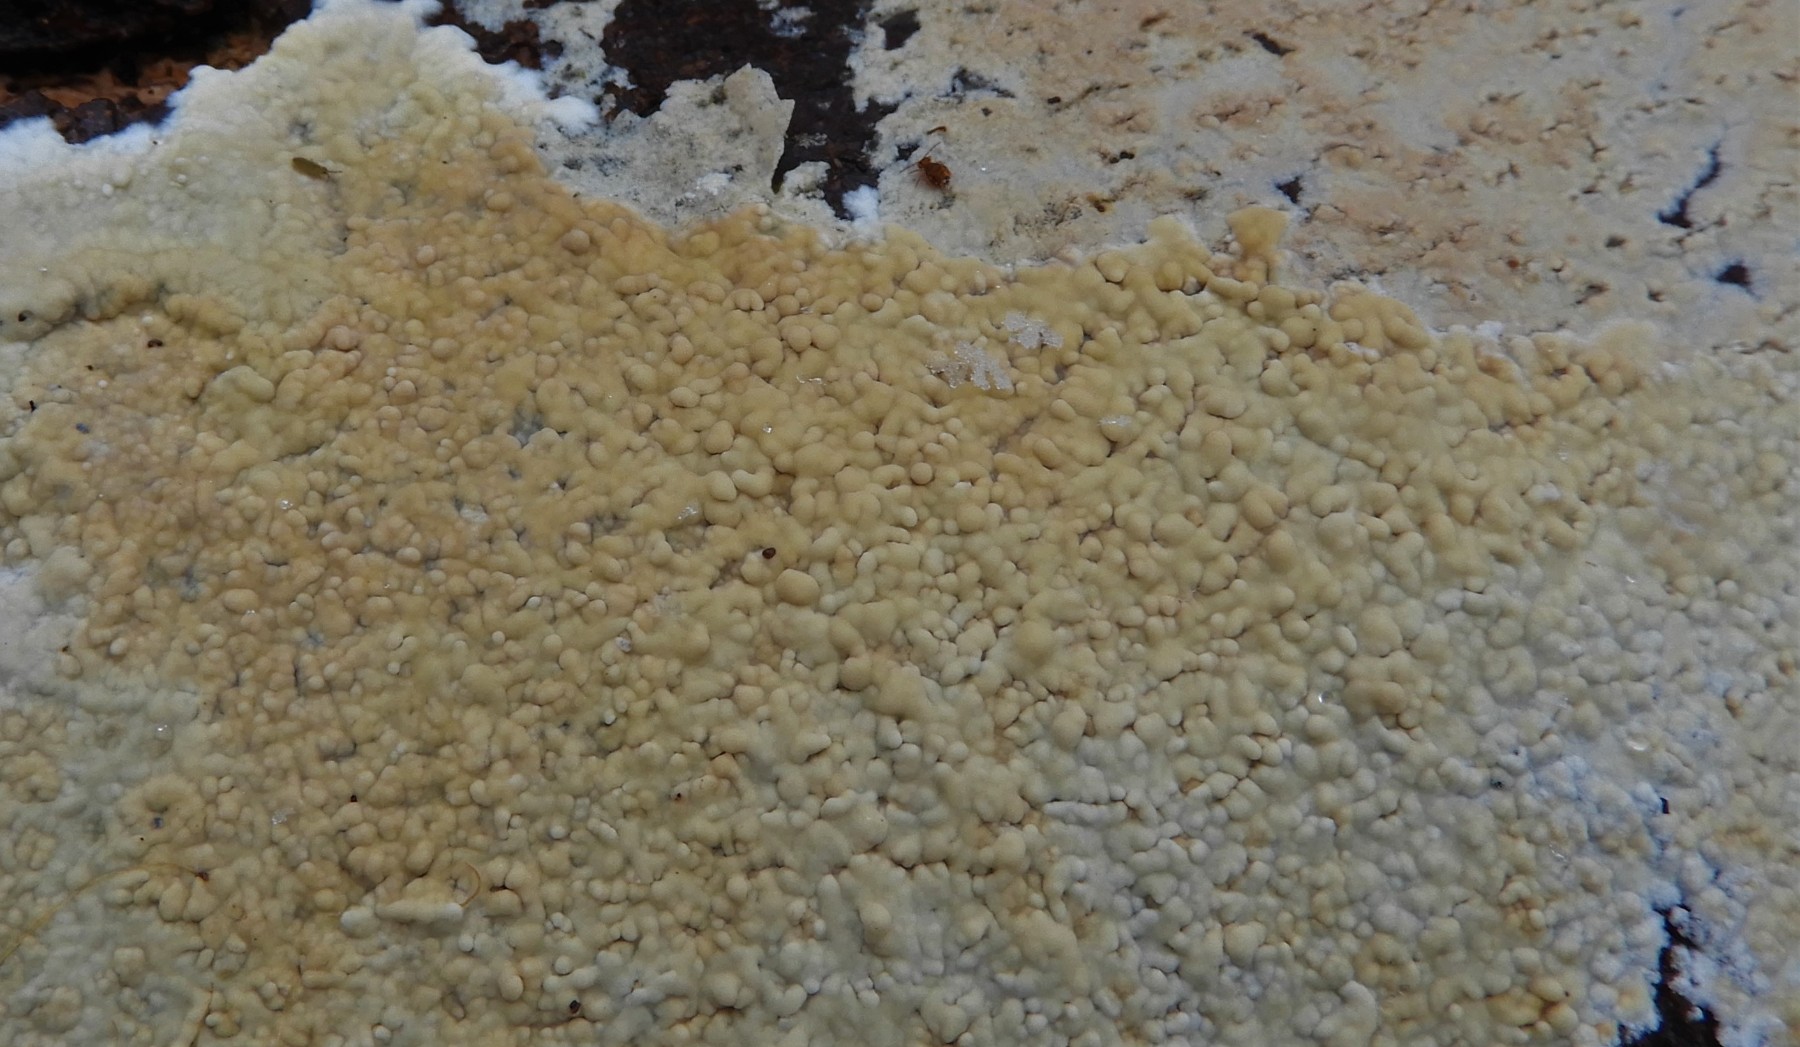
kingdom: Fungi
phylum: Basidiomycota
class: Agaricomycetes
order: Corticiales
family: Corticiaceae
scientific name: Corticiaceae
